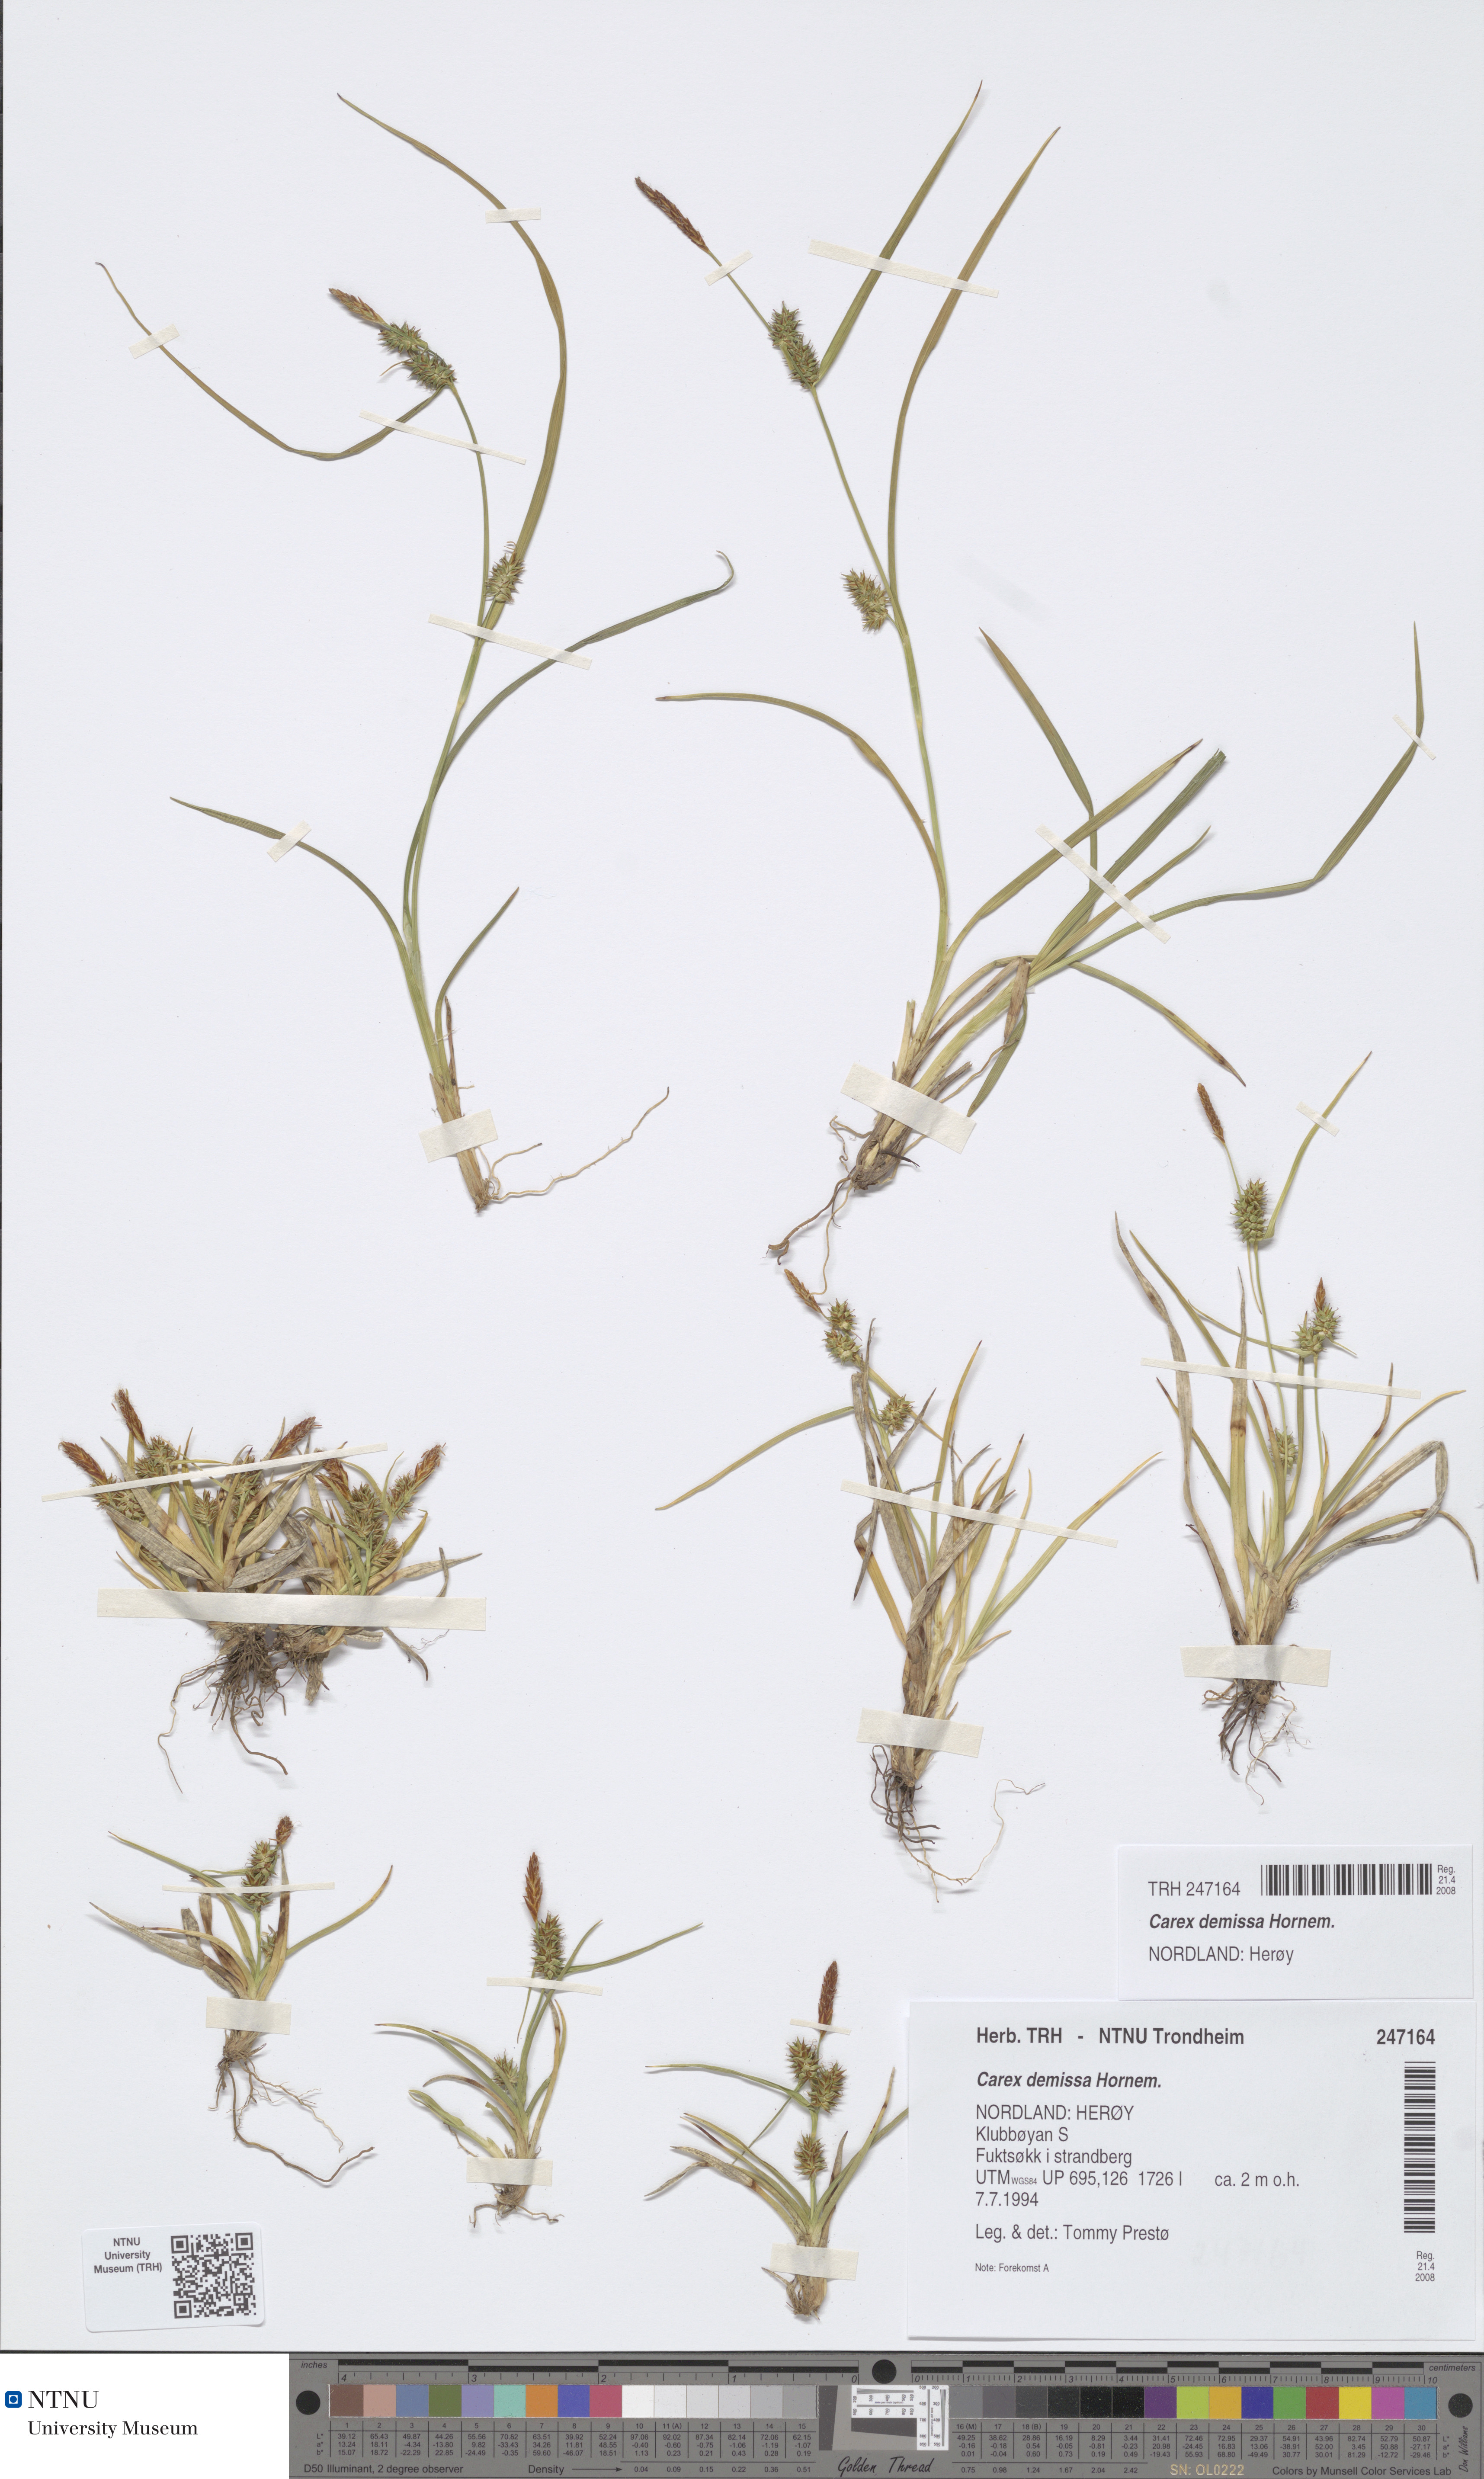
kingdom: Plantae
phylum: Tracheophyta
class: Liliopsida
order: Poales
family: Cyperaceae
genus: Carex
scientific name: Carex demissa
